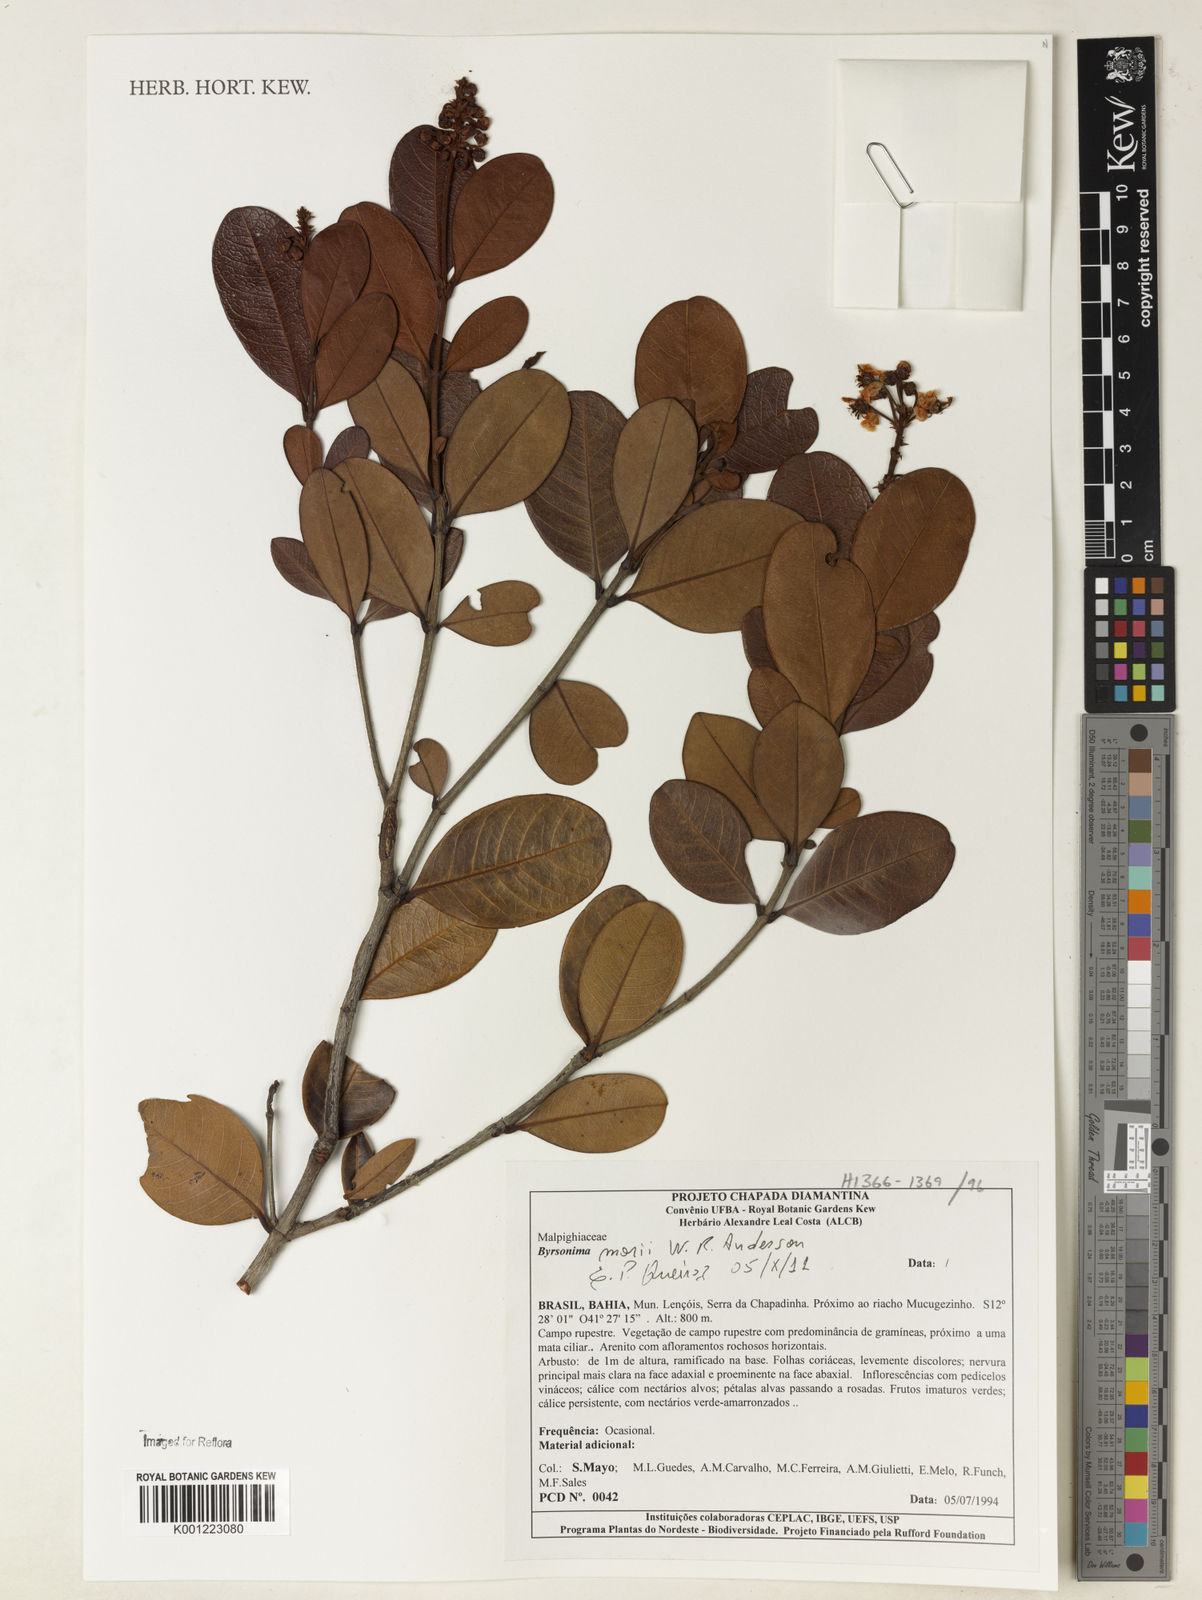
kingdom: Plantae
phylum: Tracheophyta
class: Magnoliopsida
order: Malpighiales
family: Malpighiaceae
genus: Byrsonima
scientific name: Byrsonima morii
